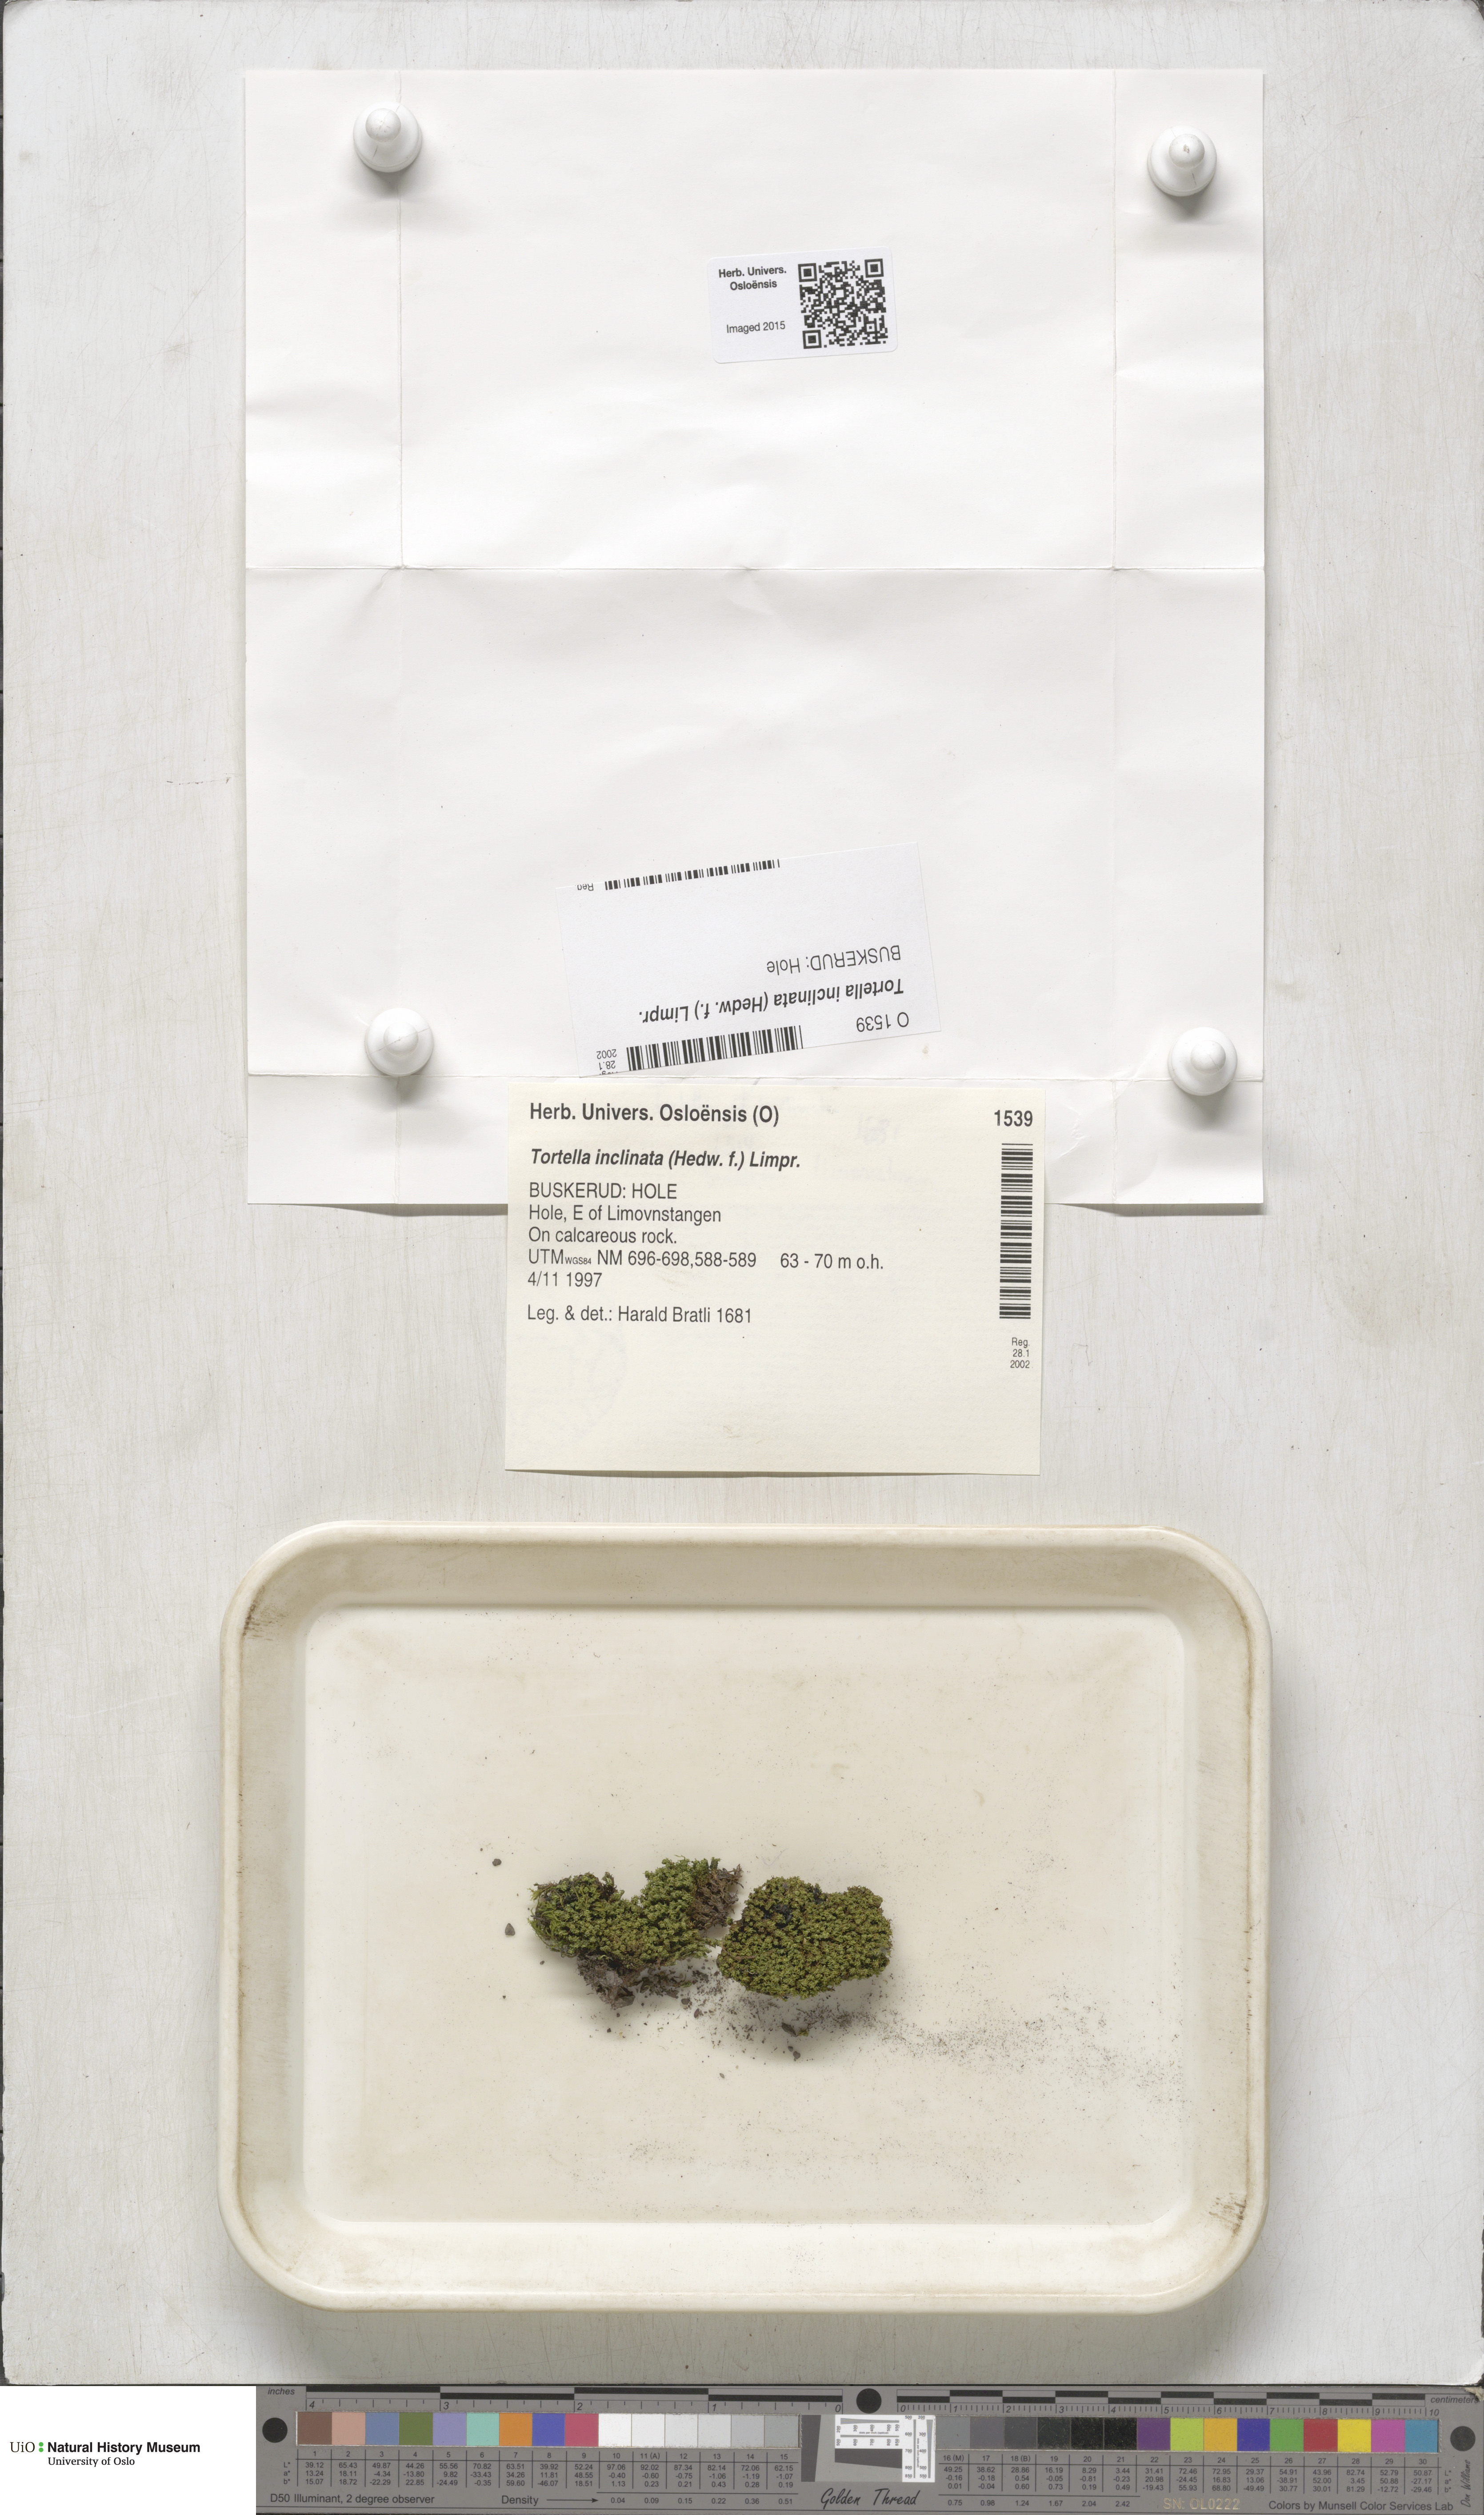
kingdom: Plantae
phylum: Bryophyta
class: Bryopsida
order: Pottiales
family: Pottiaceae
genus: Tortella
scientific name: Tortella inclinata
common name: Inclined twisted moss
